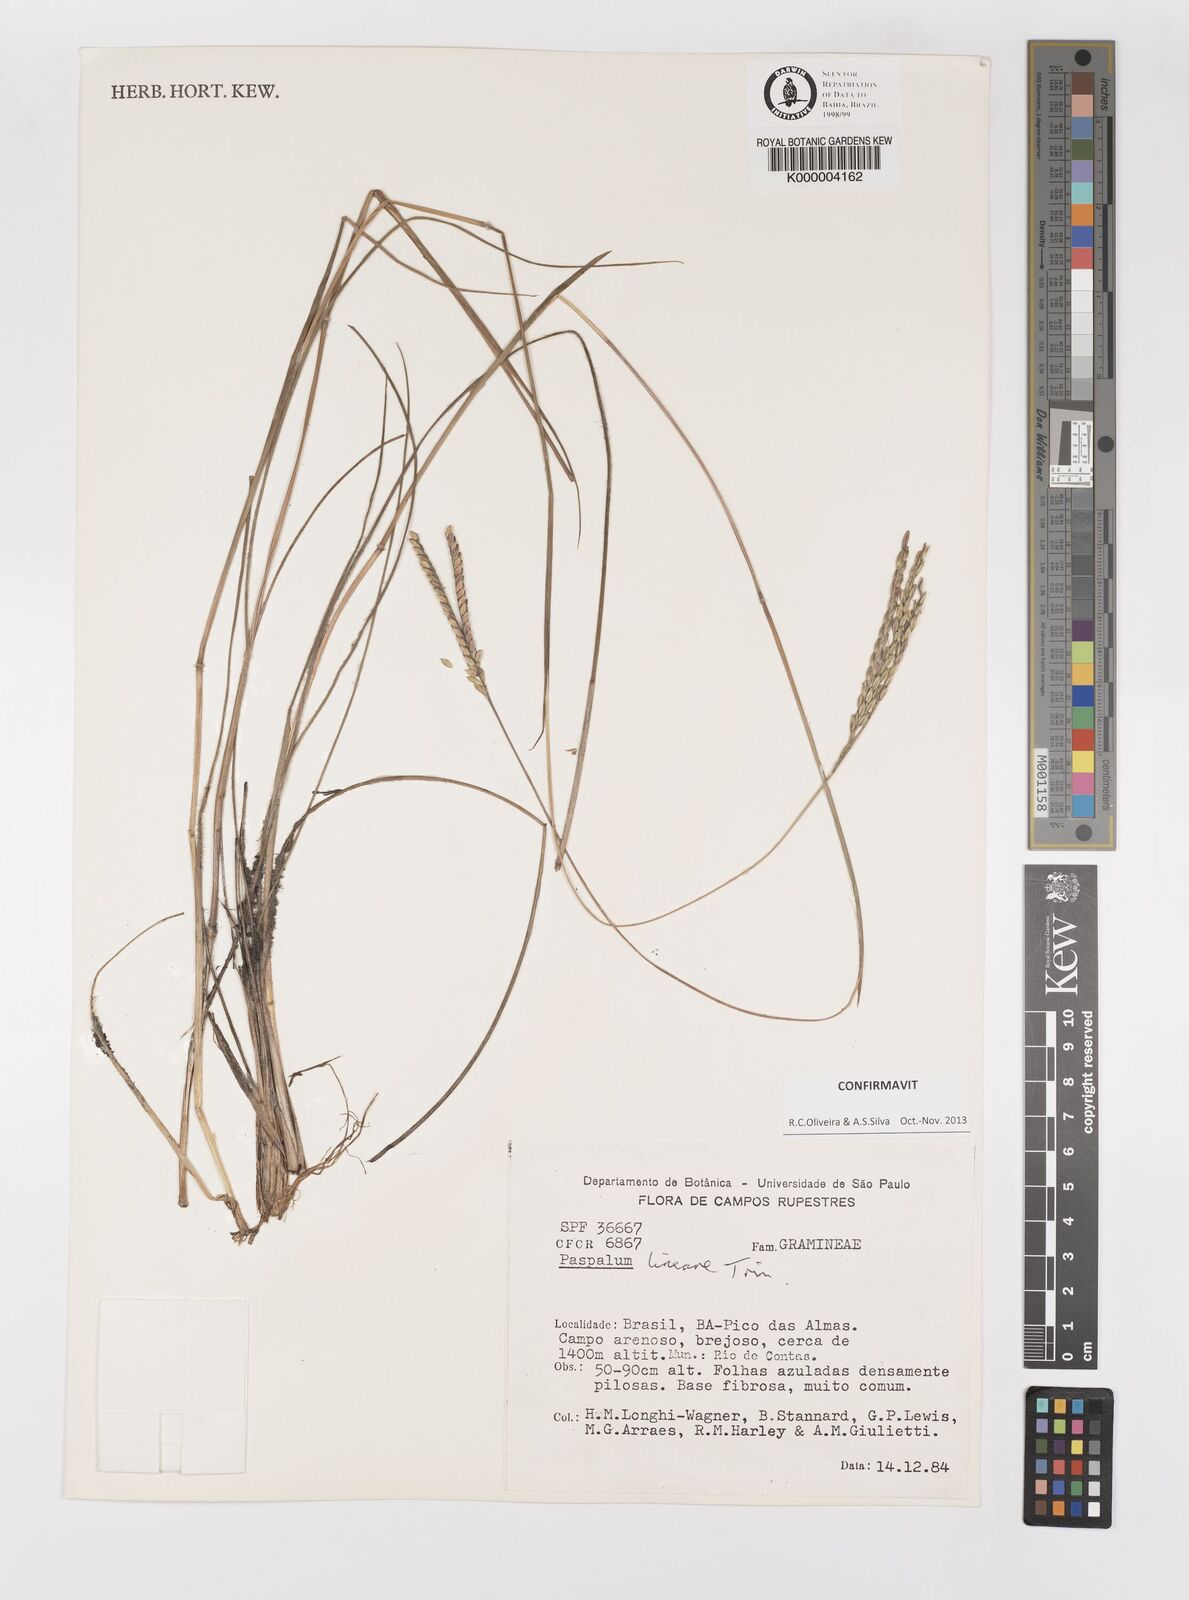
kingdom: Plantae
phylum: Tracheophyta
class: Liliopsida
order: Poales
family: Poaceae
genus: Paspalum
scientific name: Paspalum lineare
